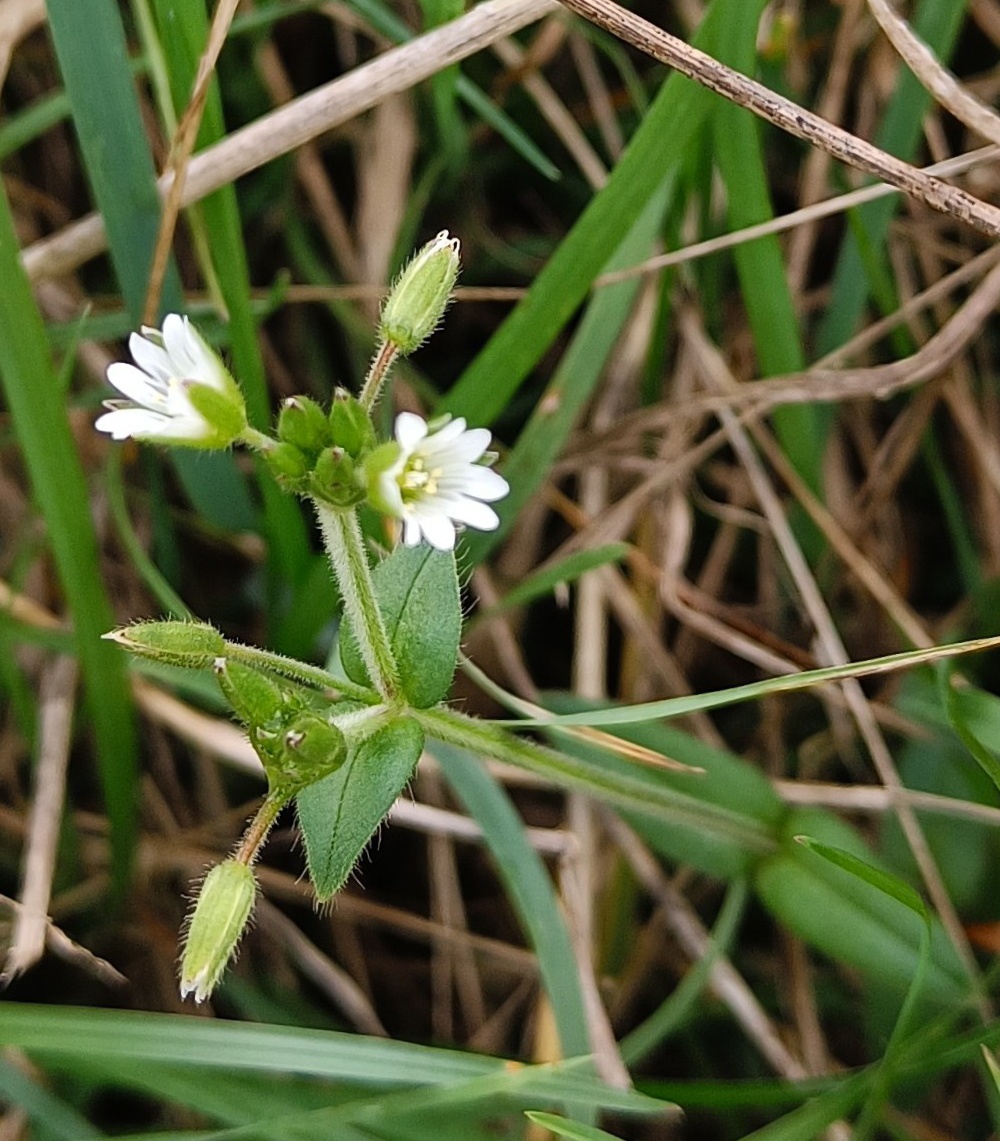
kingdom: Plantae
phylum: Tracheophyta
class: Magnoliopsida
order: Caryophyllales
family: Caryophyllaceae
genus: Cerastium
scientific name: Cerastium fontanum
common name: Almindelig hønsetarm
